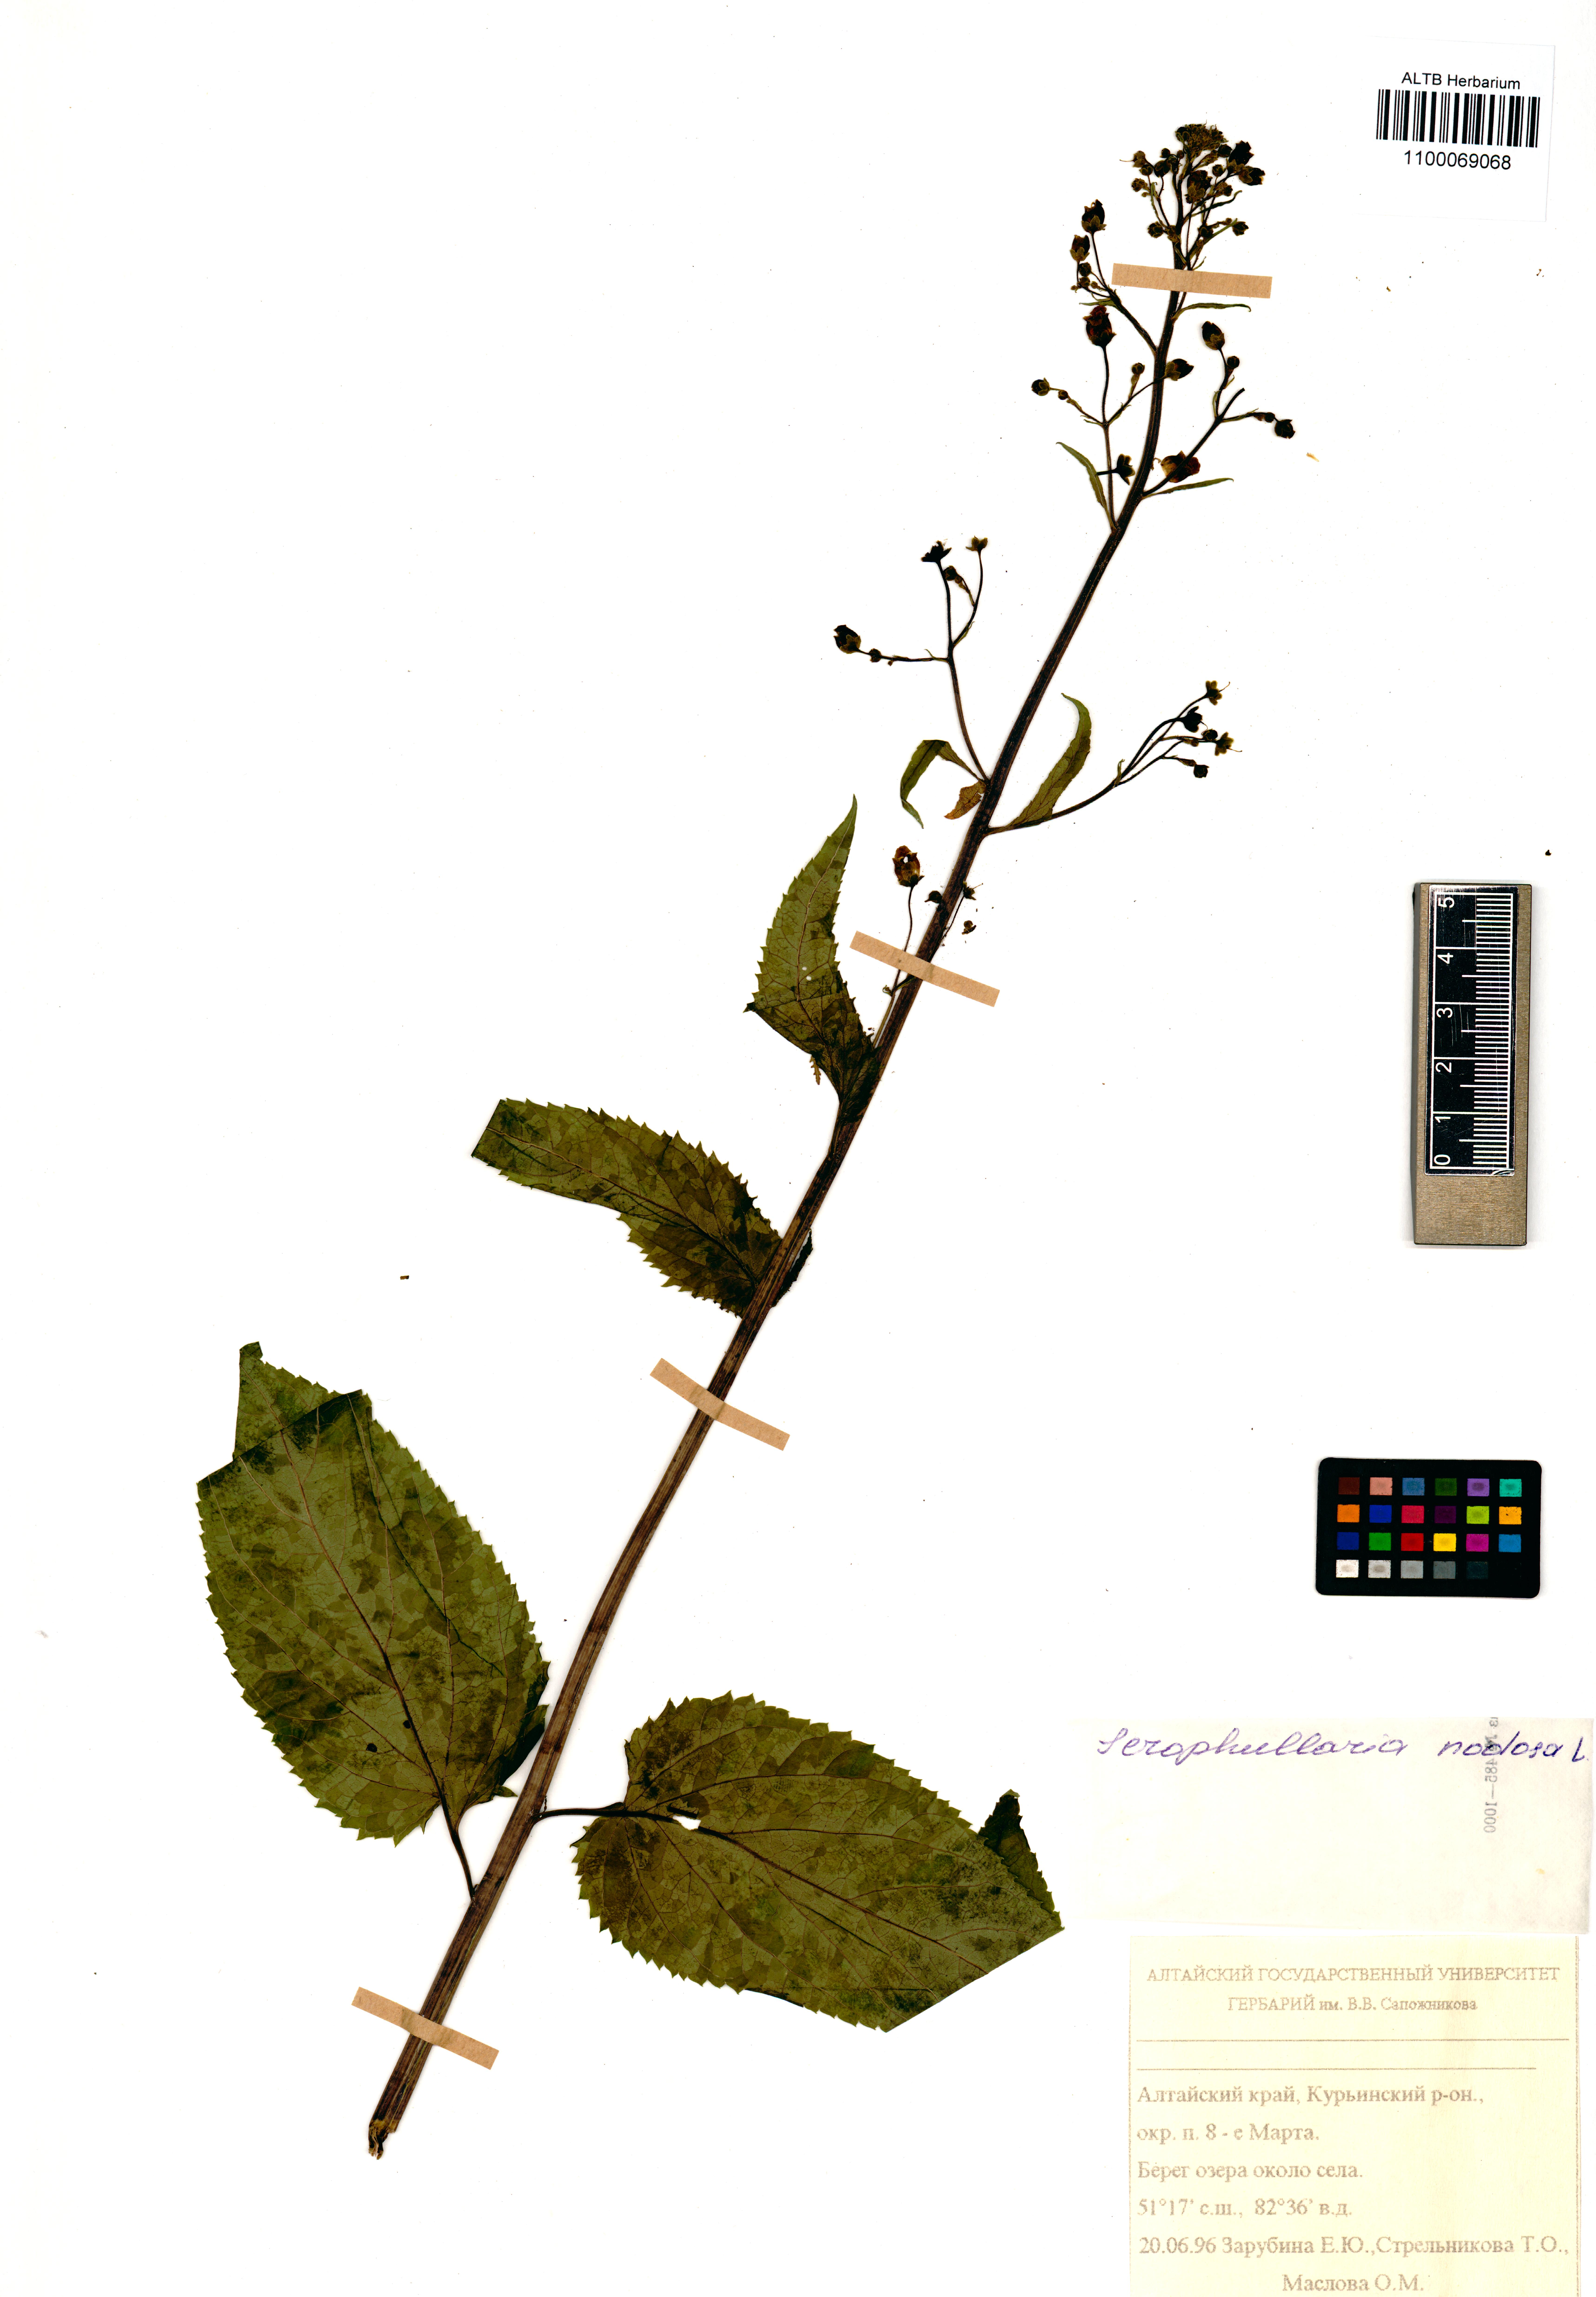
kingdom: Plantae
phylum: Tracheophyta
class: Magnoliopsida
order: Lamiales
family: Scrophulariaceae
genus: Scrophularia
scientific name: Scrophularia nodosa
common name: Common figwort
